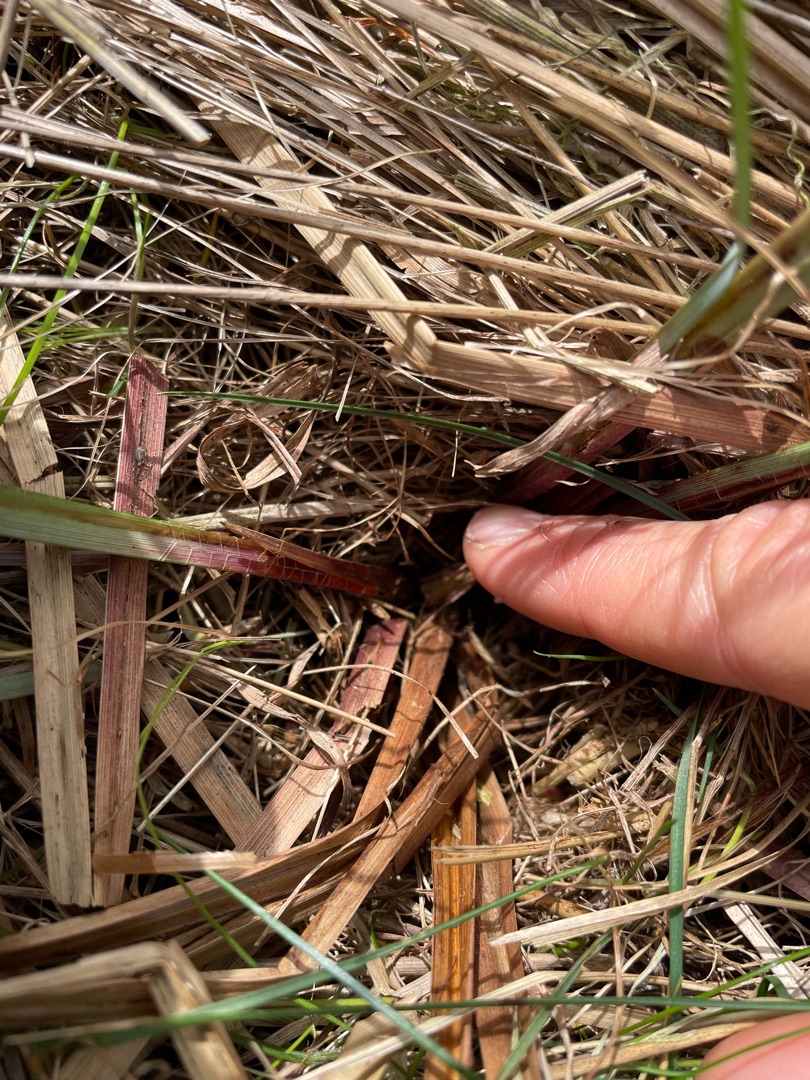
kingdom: Plantae
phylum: Tracheophyta
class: Liliopsida
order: Poales
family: Cyperaceae
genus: Carex
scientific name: Carex acutiformis
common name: Kær-star
